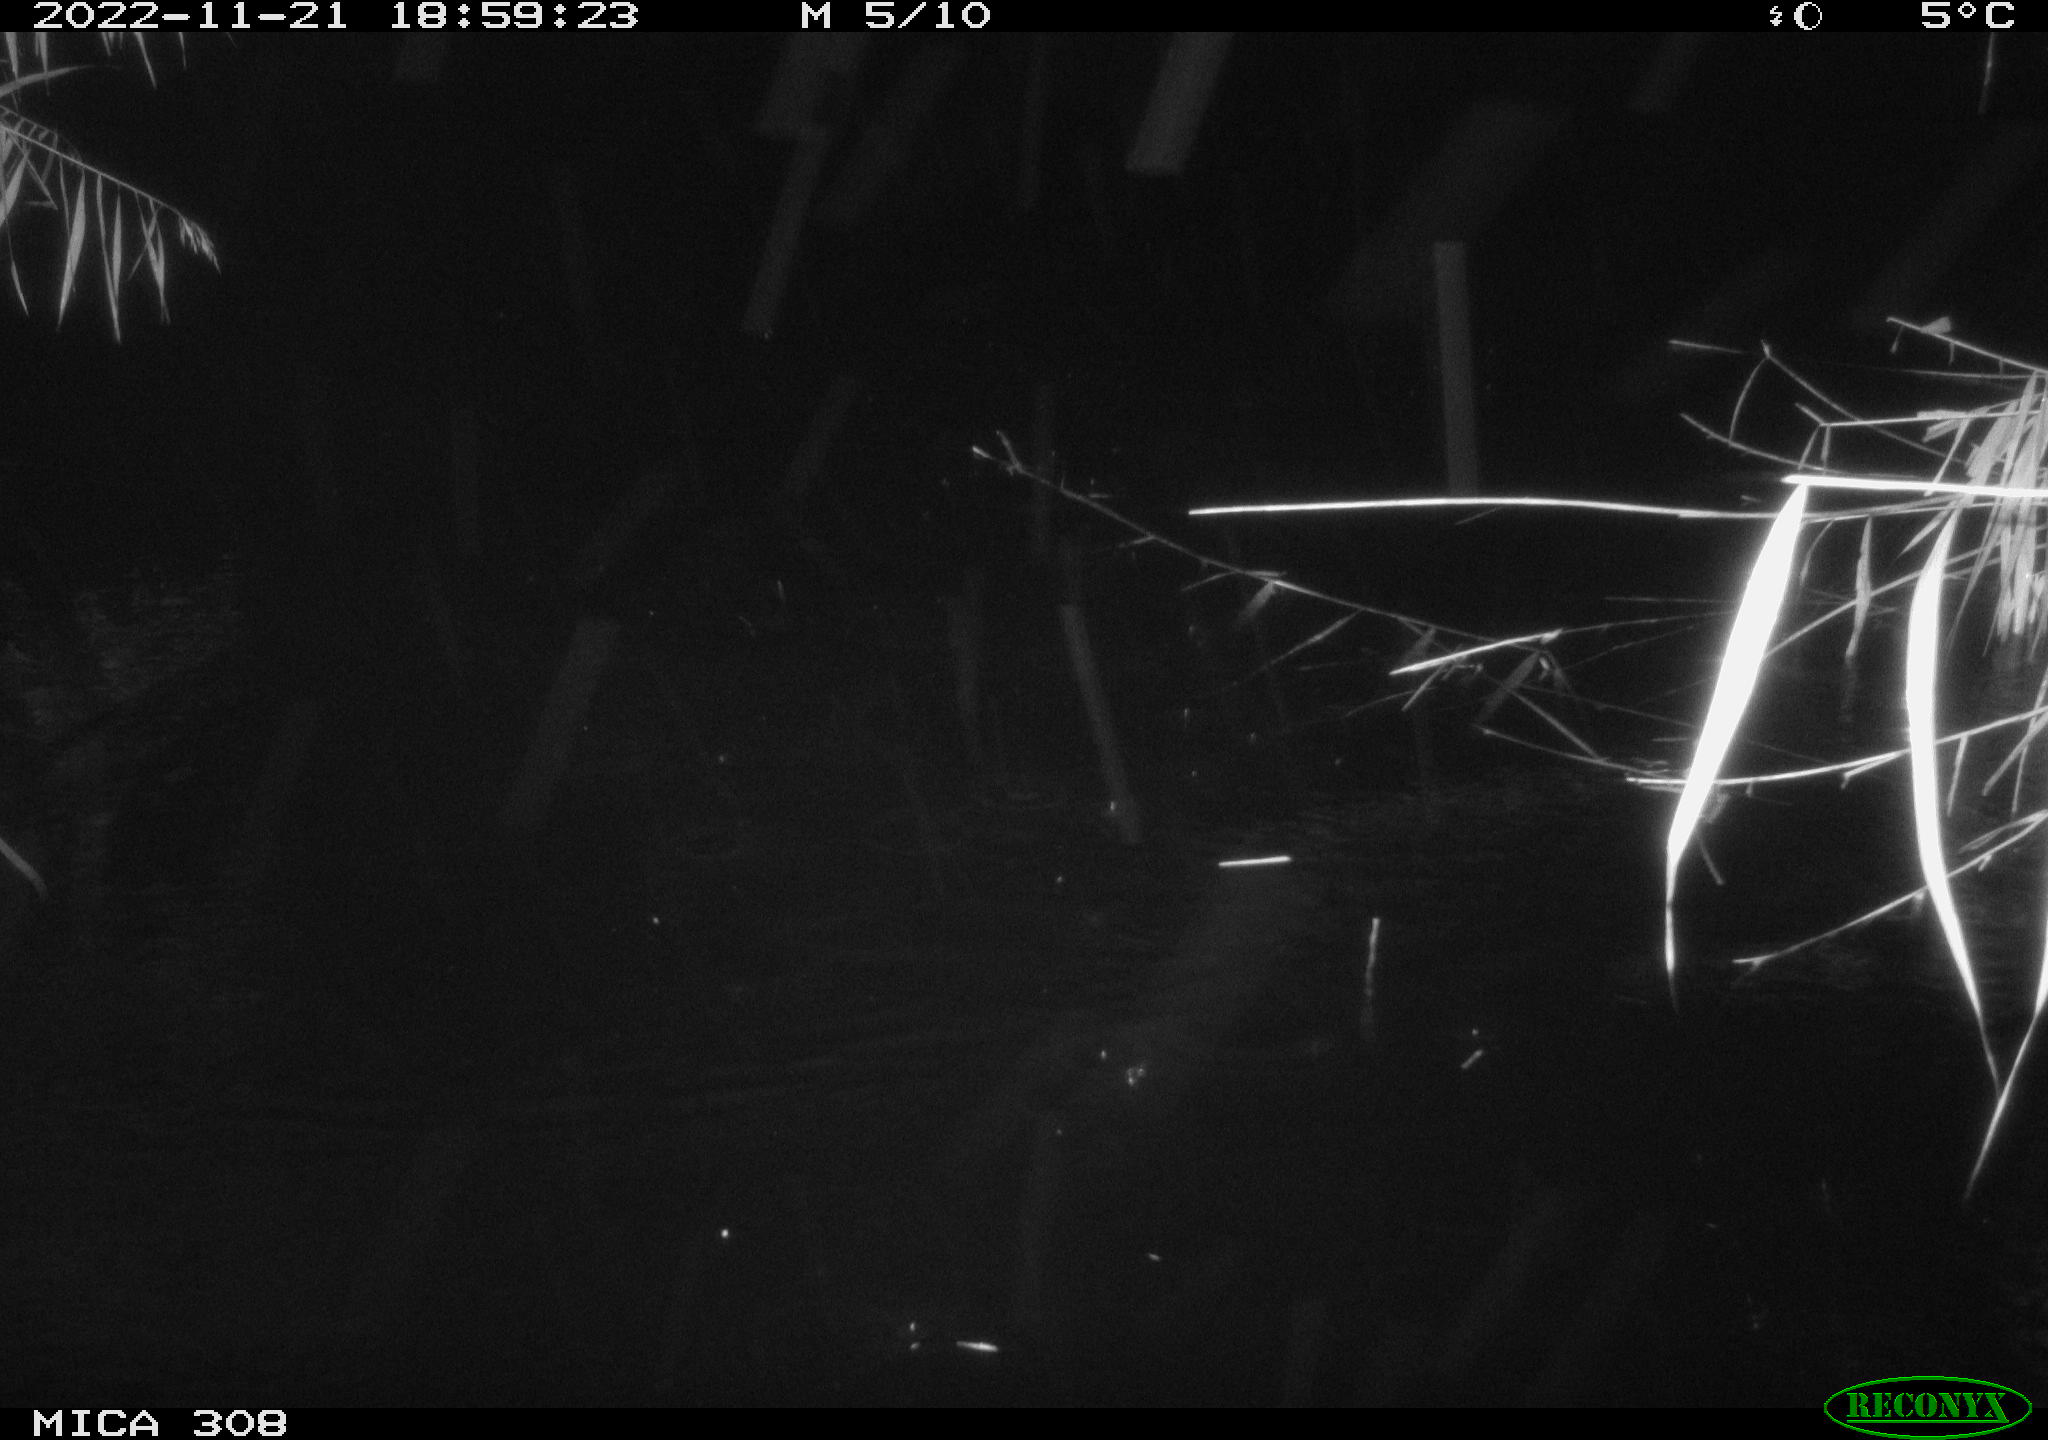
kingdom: Animalia
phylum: Chordata
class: Aves
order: Anseriformes
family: Anatidae
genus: Anas
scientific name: Anas
